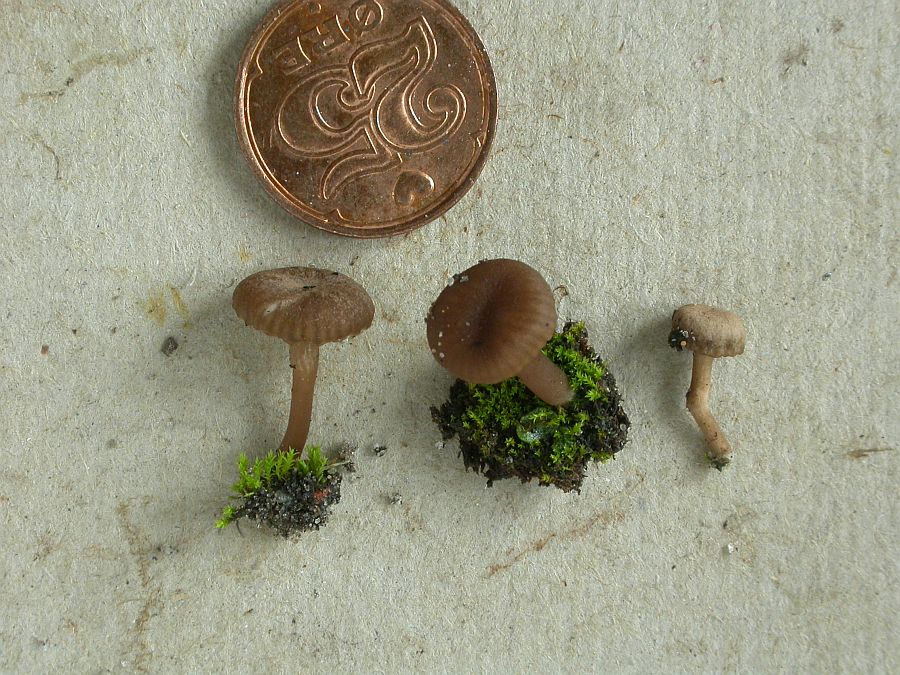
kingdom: Fungi
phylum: Basidiomycota
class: Agaricomycetes
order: Agaricales
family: Hygrophoraceae
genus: Arrhenia
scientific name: Arrhenia obscurata
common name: hede-fontænehat
